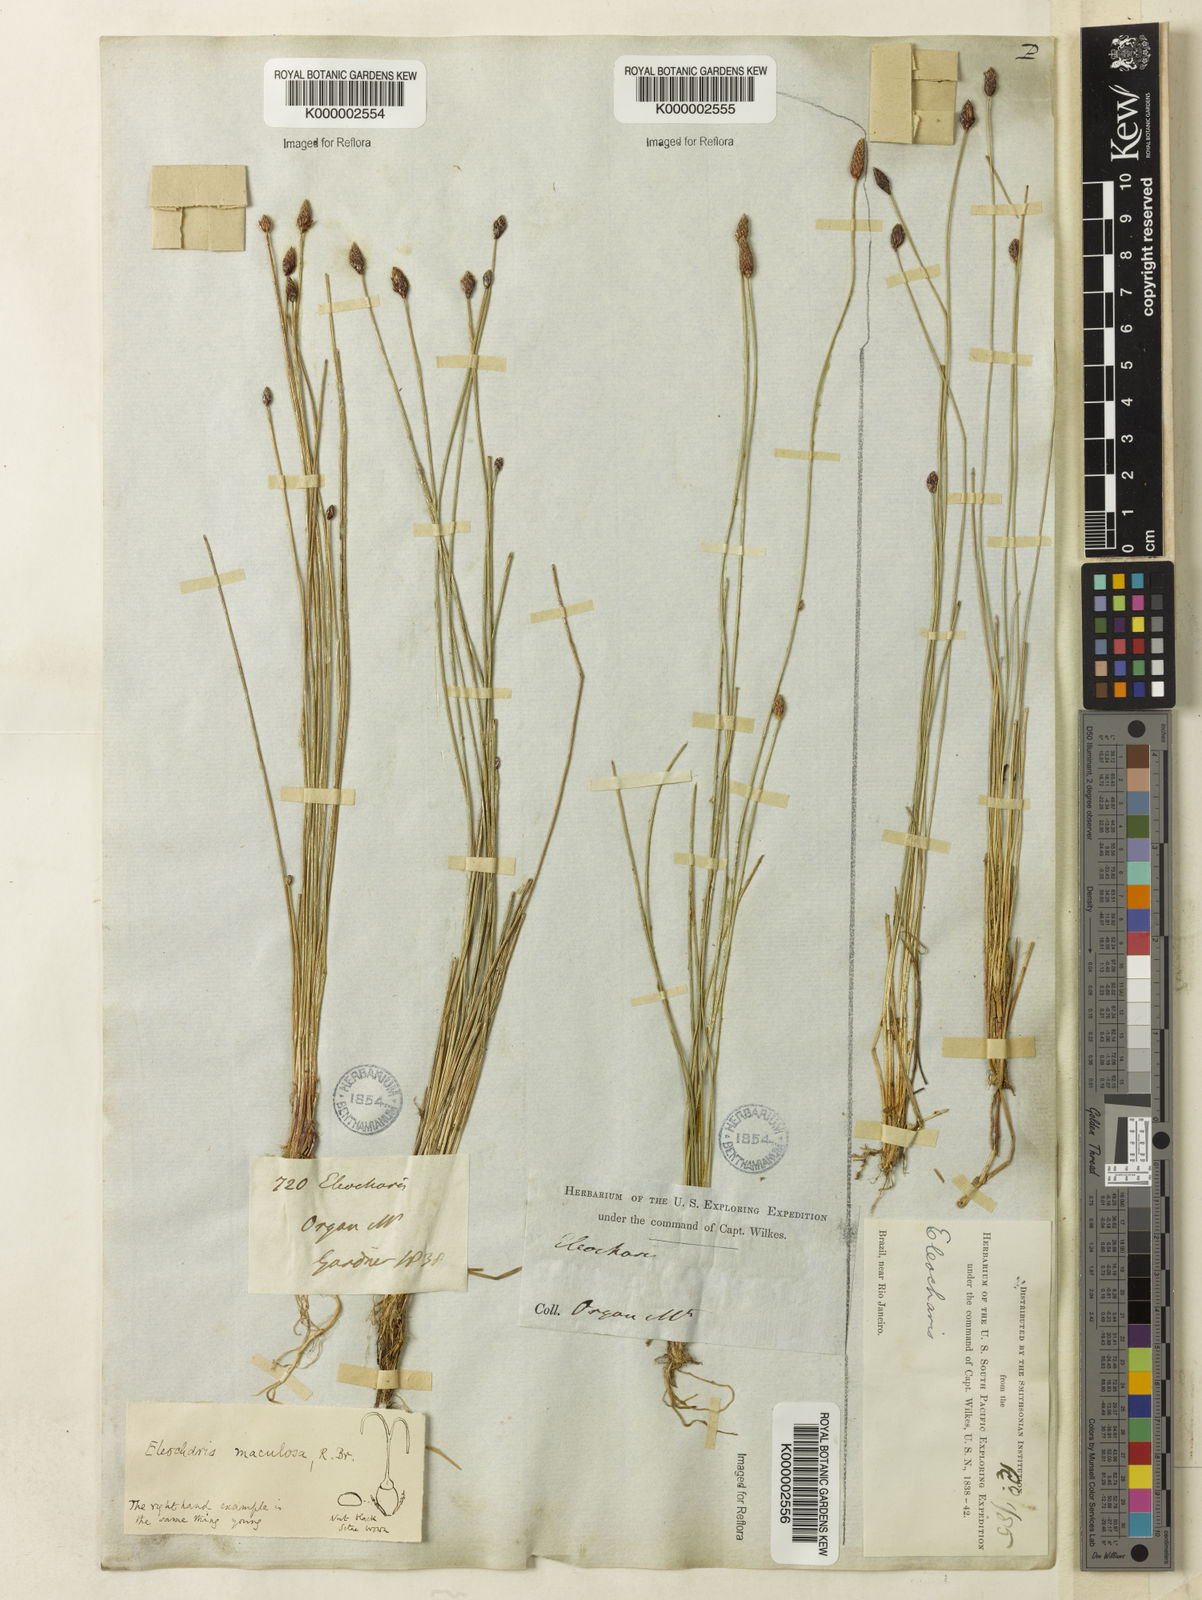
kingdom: Plantae
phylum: Tracheophyta
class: Liliopsida
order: Poales
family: Cyperaceae
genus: Eleocharis
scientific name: Eleocharis maculosa
